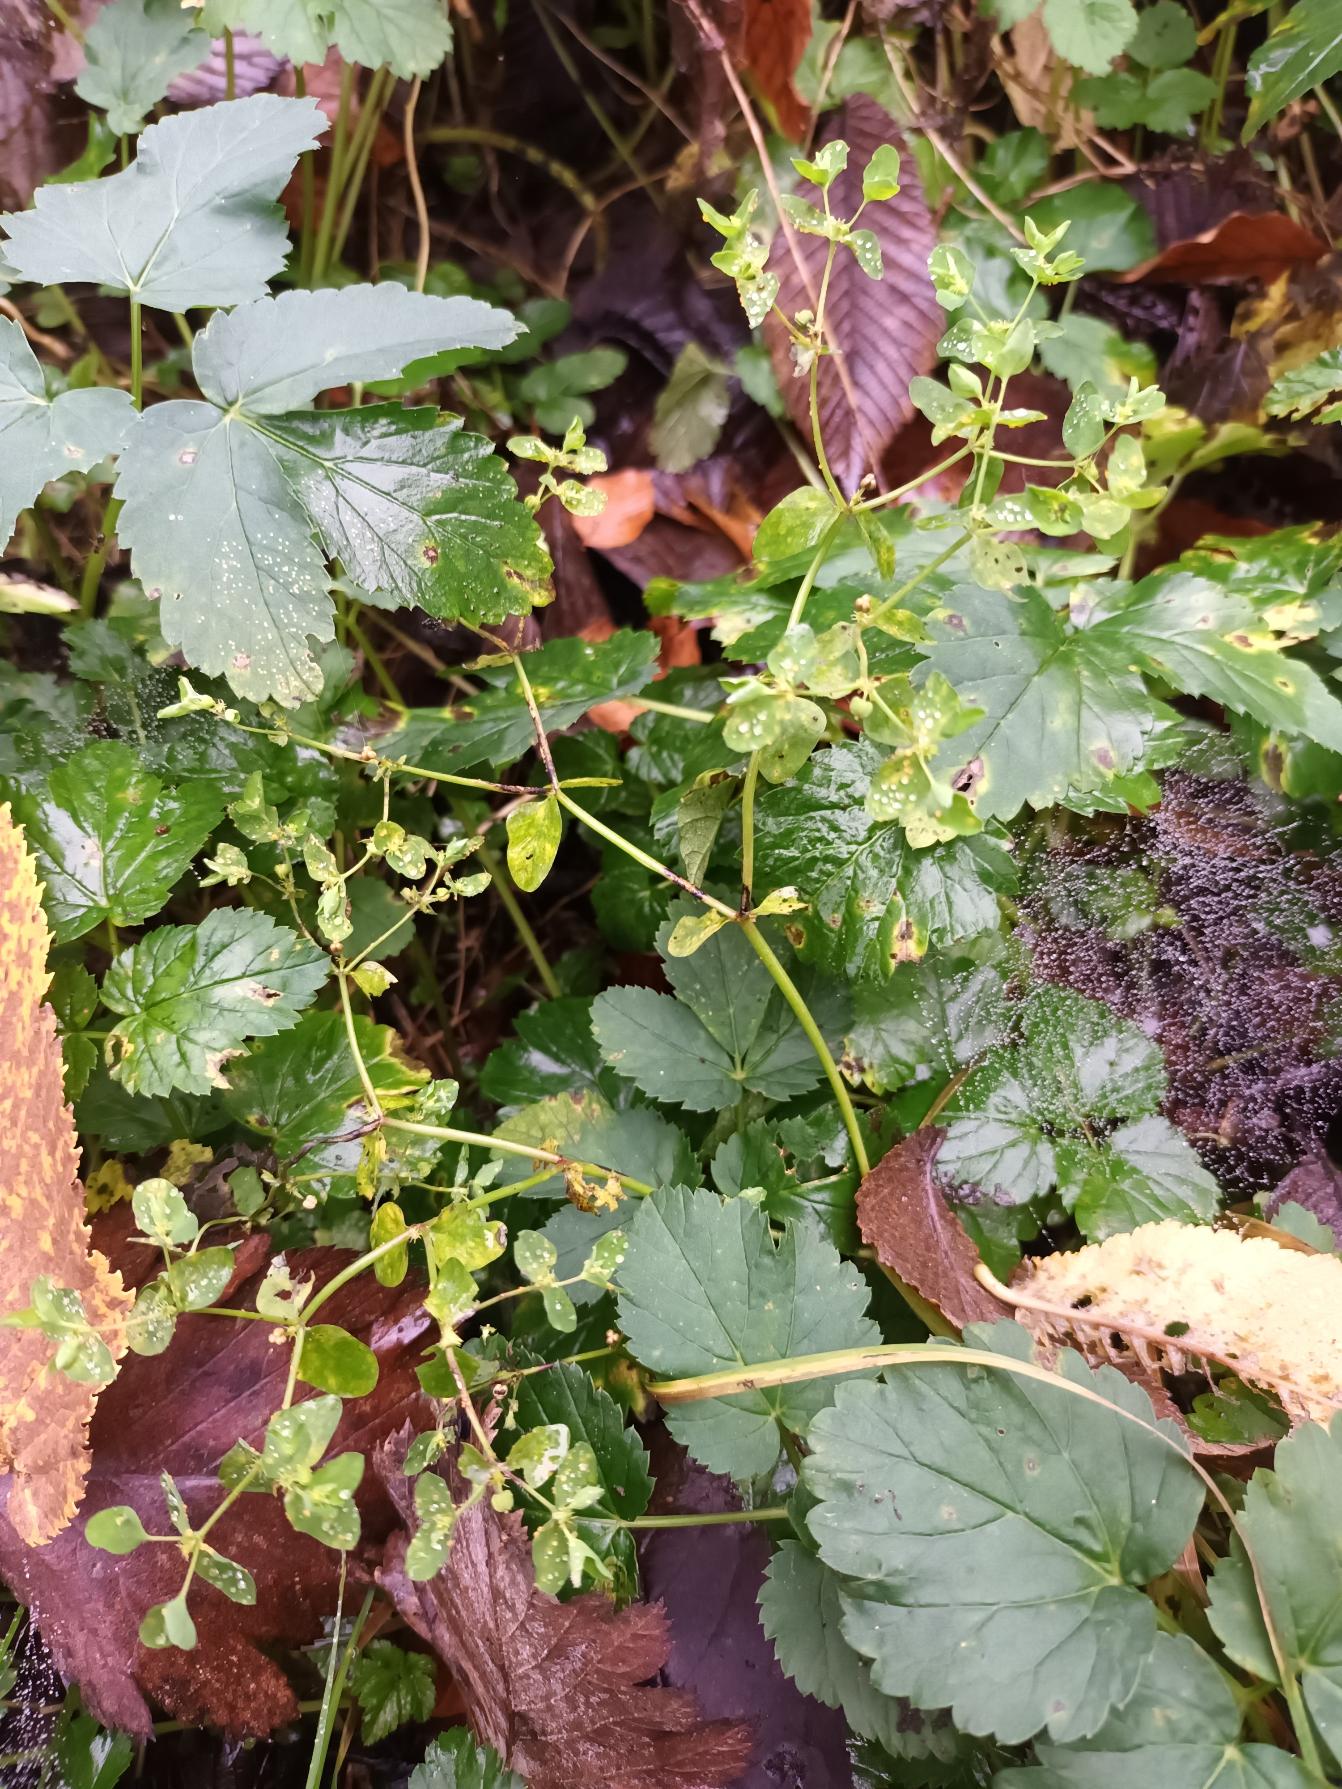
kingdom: Plantae
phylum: Tracheophyta
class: Magnoliopsida
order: Malpighiales
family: Euphorbiaceae
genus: Euphorbia
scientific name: Euphorbia peplus
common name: Gaffel-vortemælk
